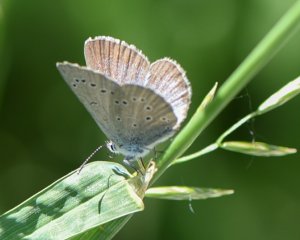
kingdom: Animalia
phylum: Arthropoda
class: Insecta
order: Lepidoptera
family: Lycaenidae
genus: Glaucopsyche
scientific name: Glaucopsyche lygdamus
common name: Silvery Blue
